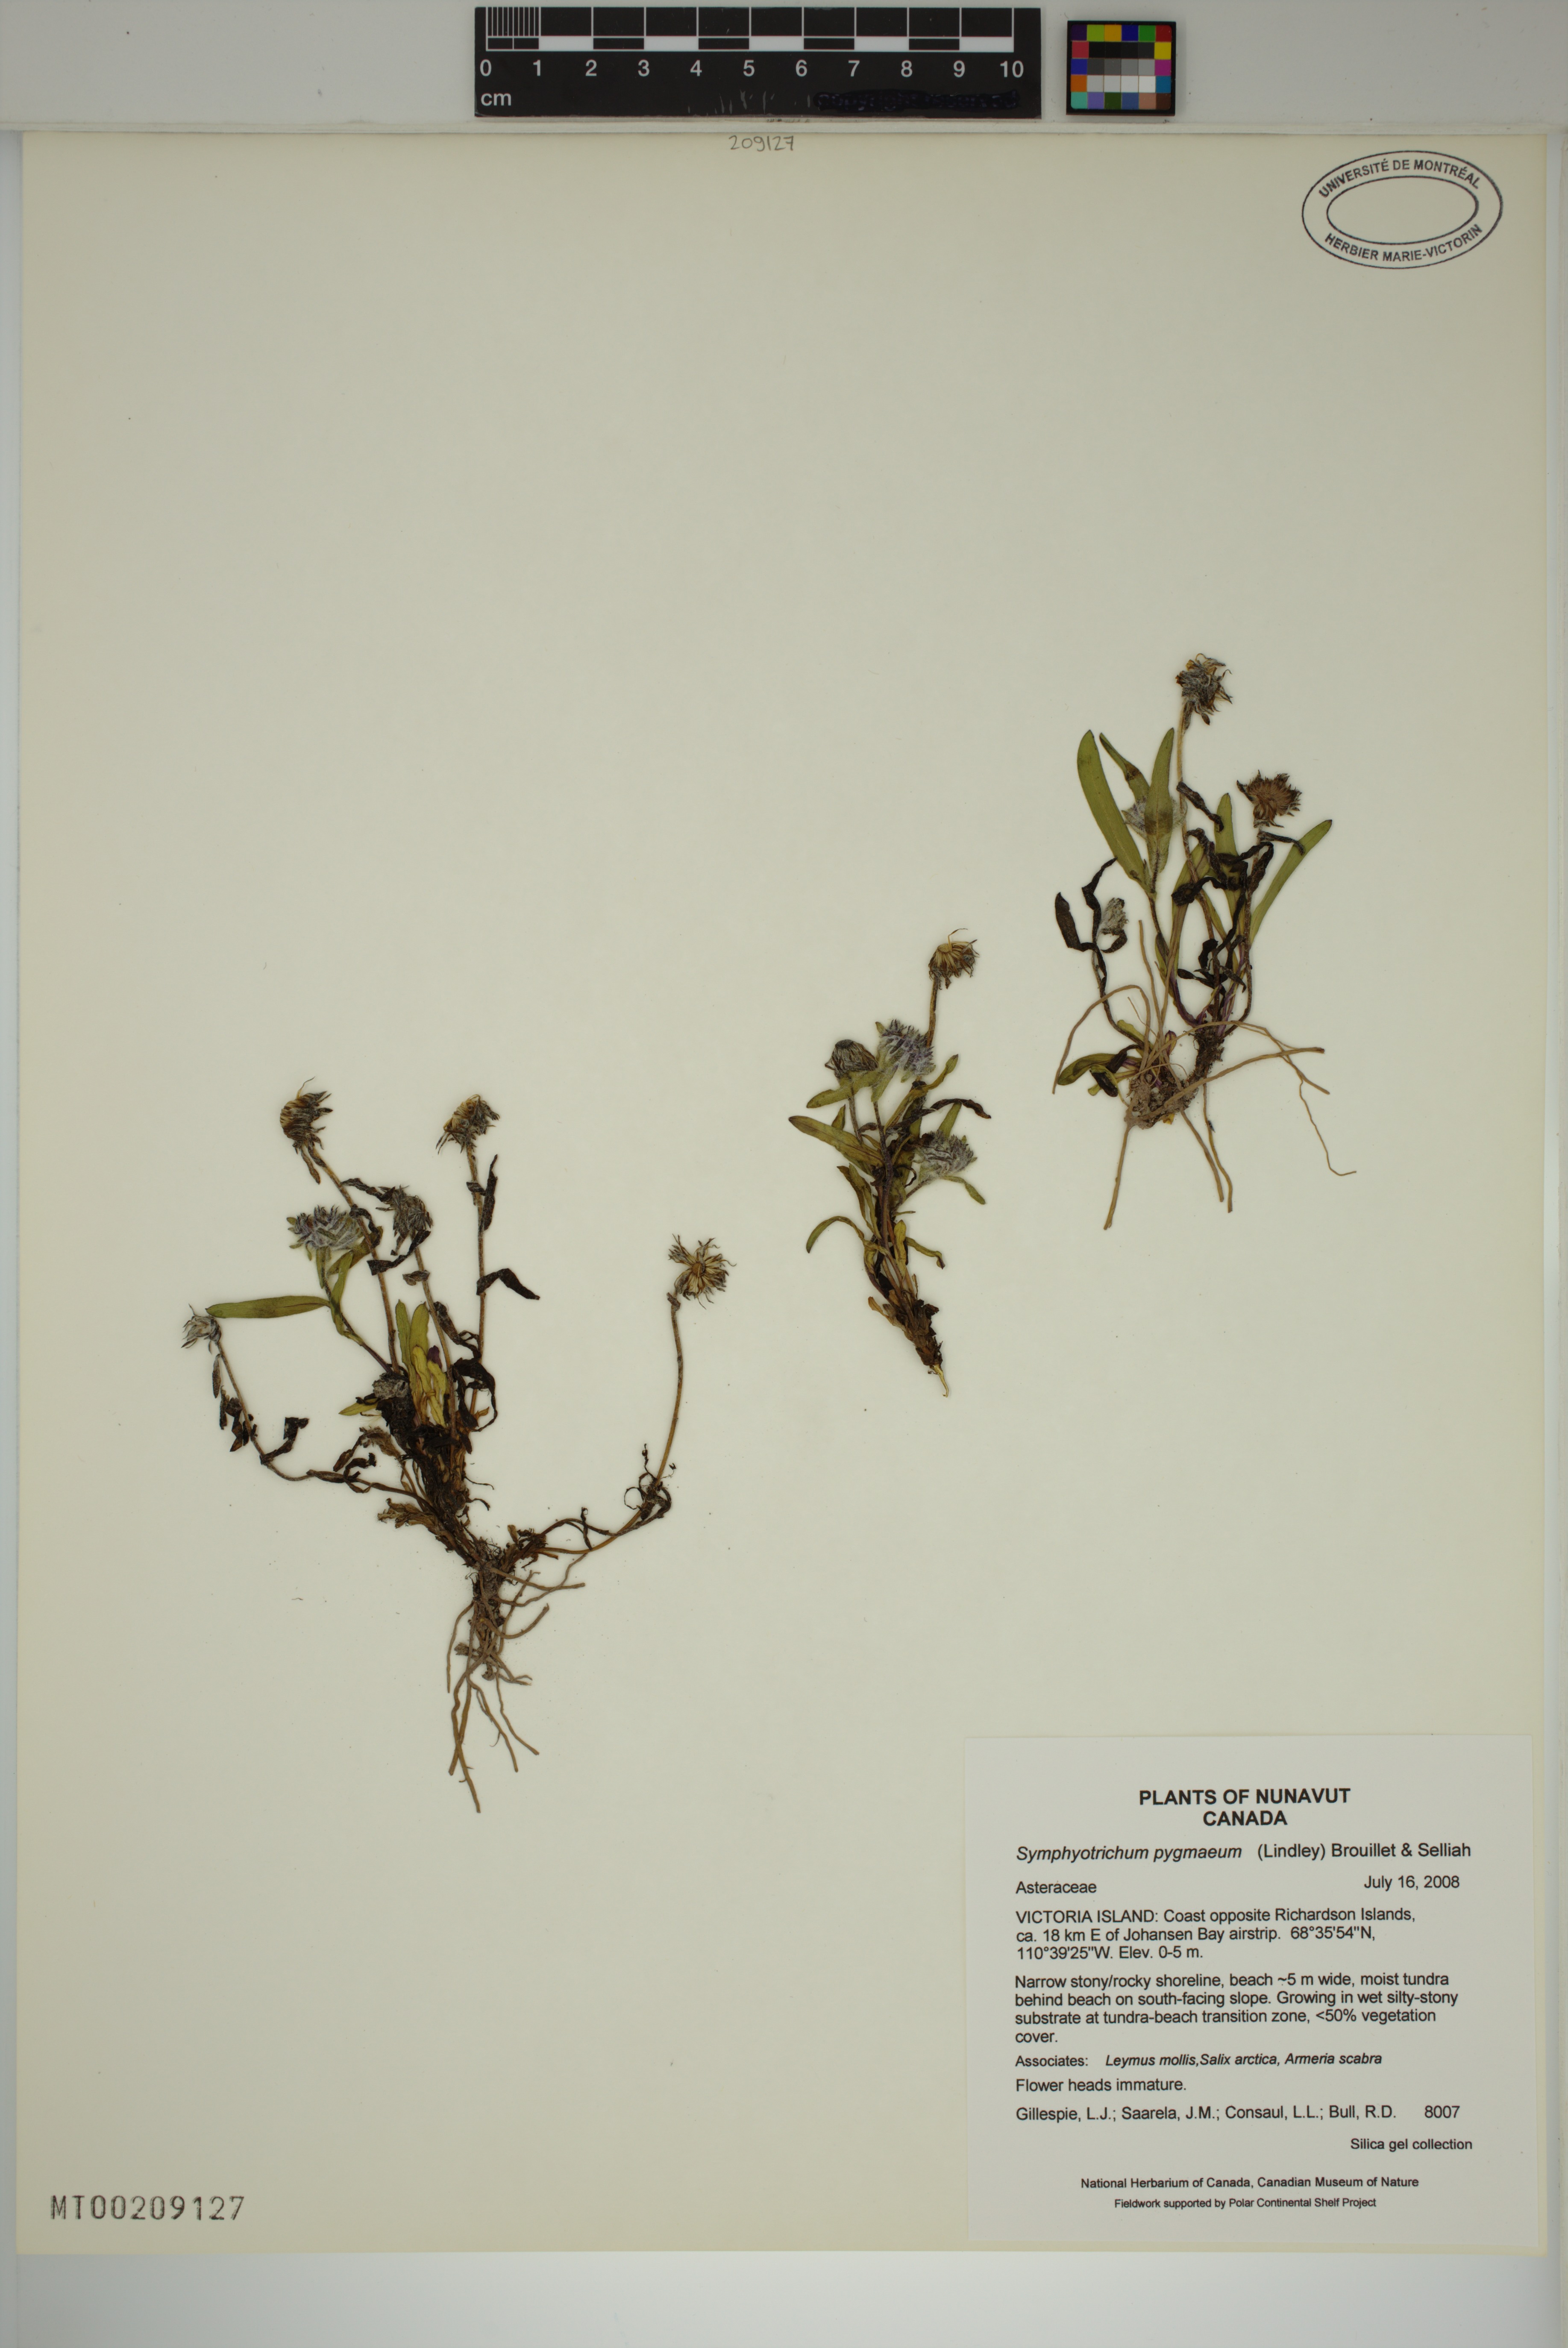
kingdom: Plantae
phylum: Tracheophyta
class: Magnoliopsida
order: Asterales
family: Asteraceae
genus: Symphyotrichum
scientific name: Symphyotrichum pygmaeum
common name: Pygmy aster
